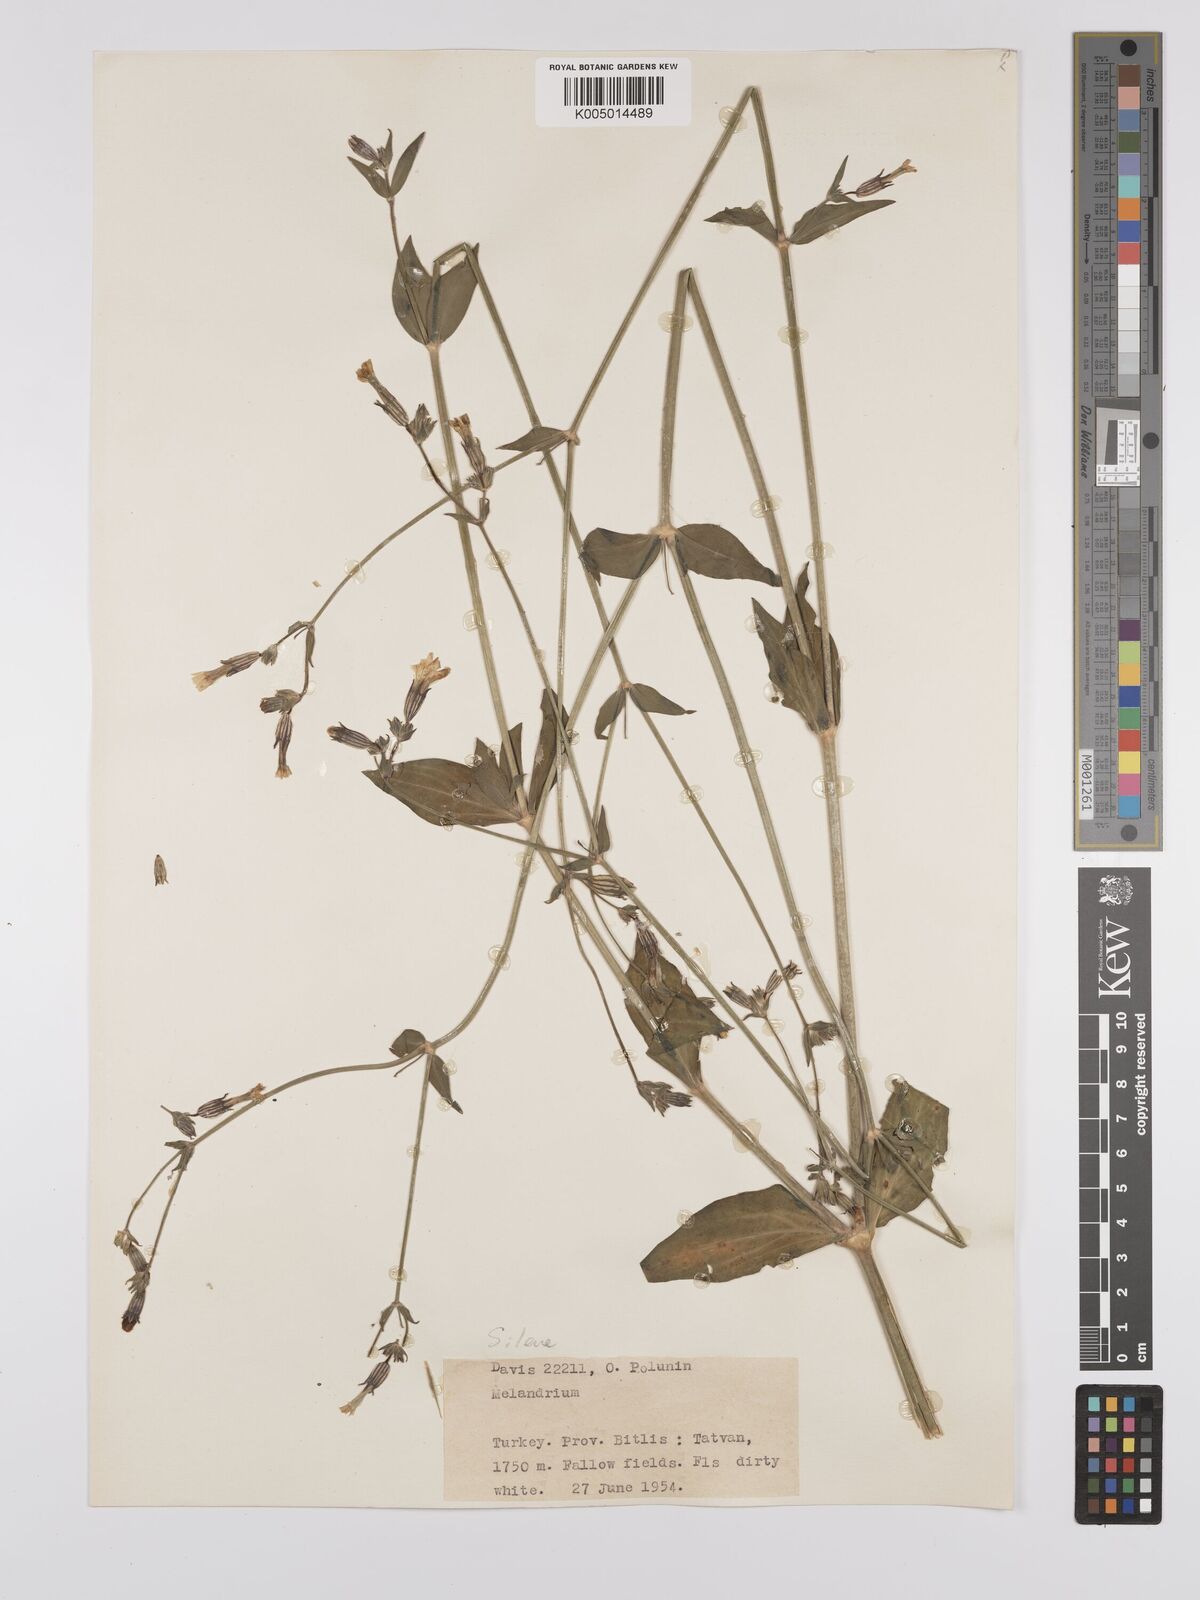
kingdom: Plantae
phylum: Tracheophyta
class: Magnoliopsida
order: Caryophyllales
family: Caryophyllaceae
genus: Silene
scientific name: Silene
